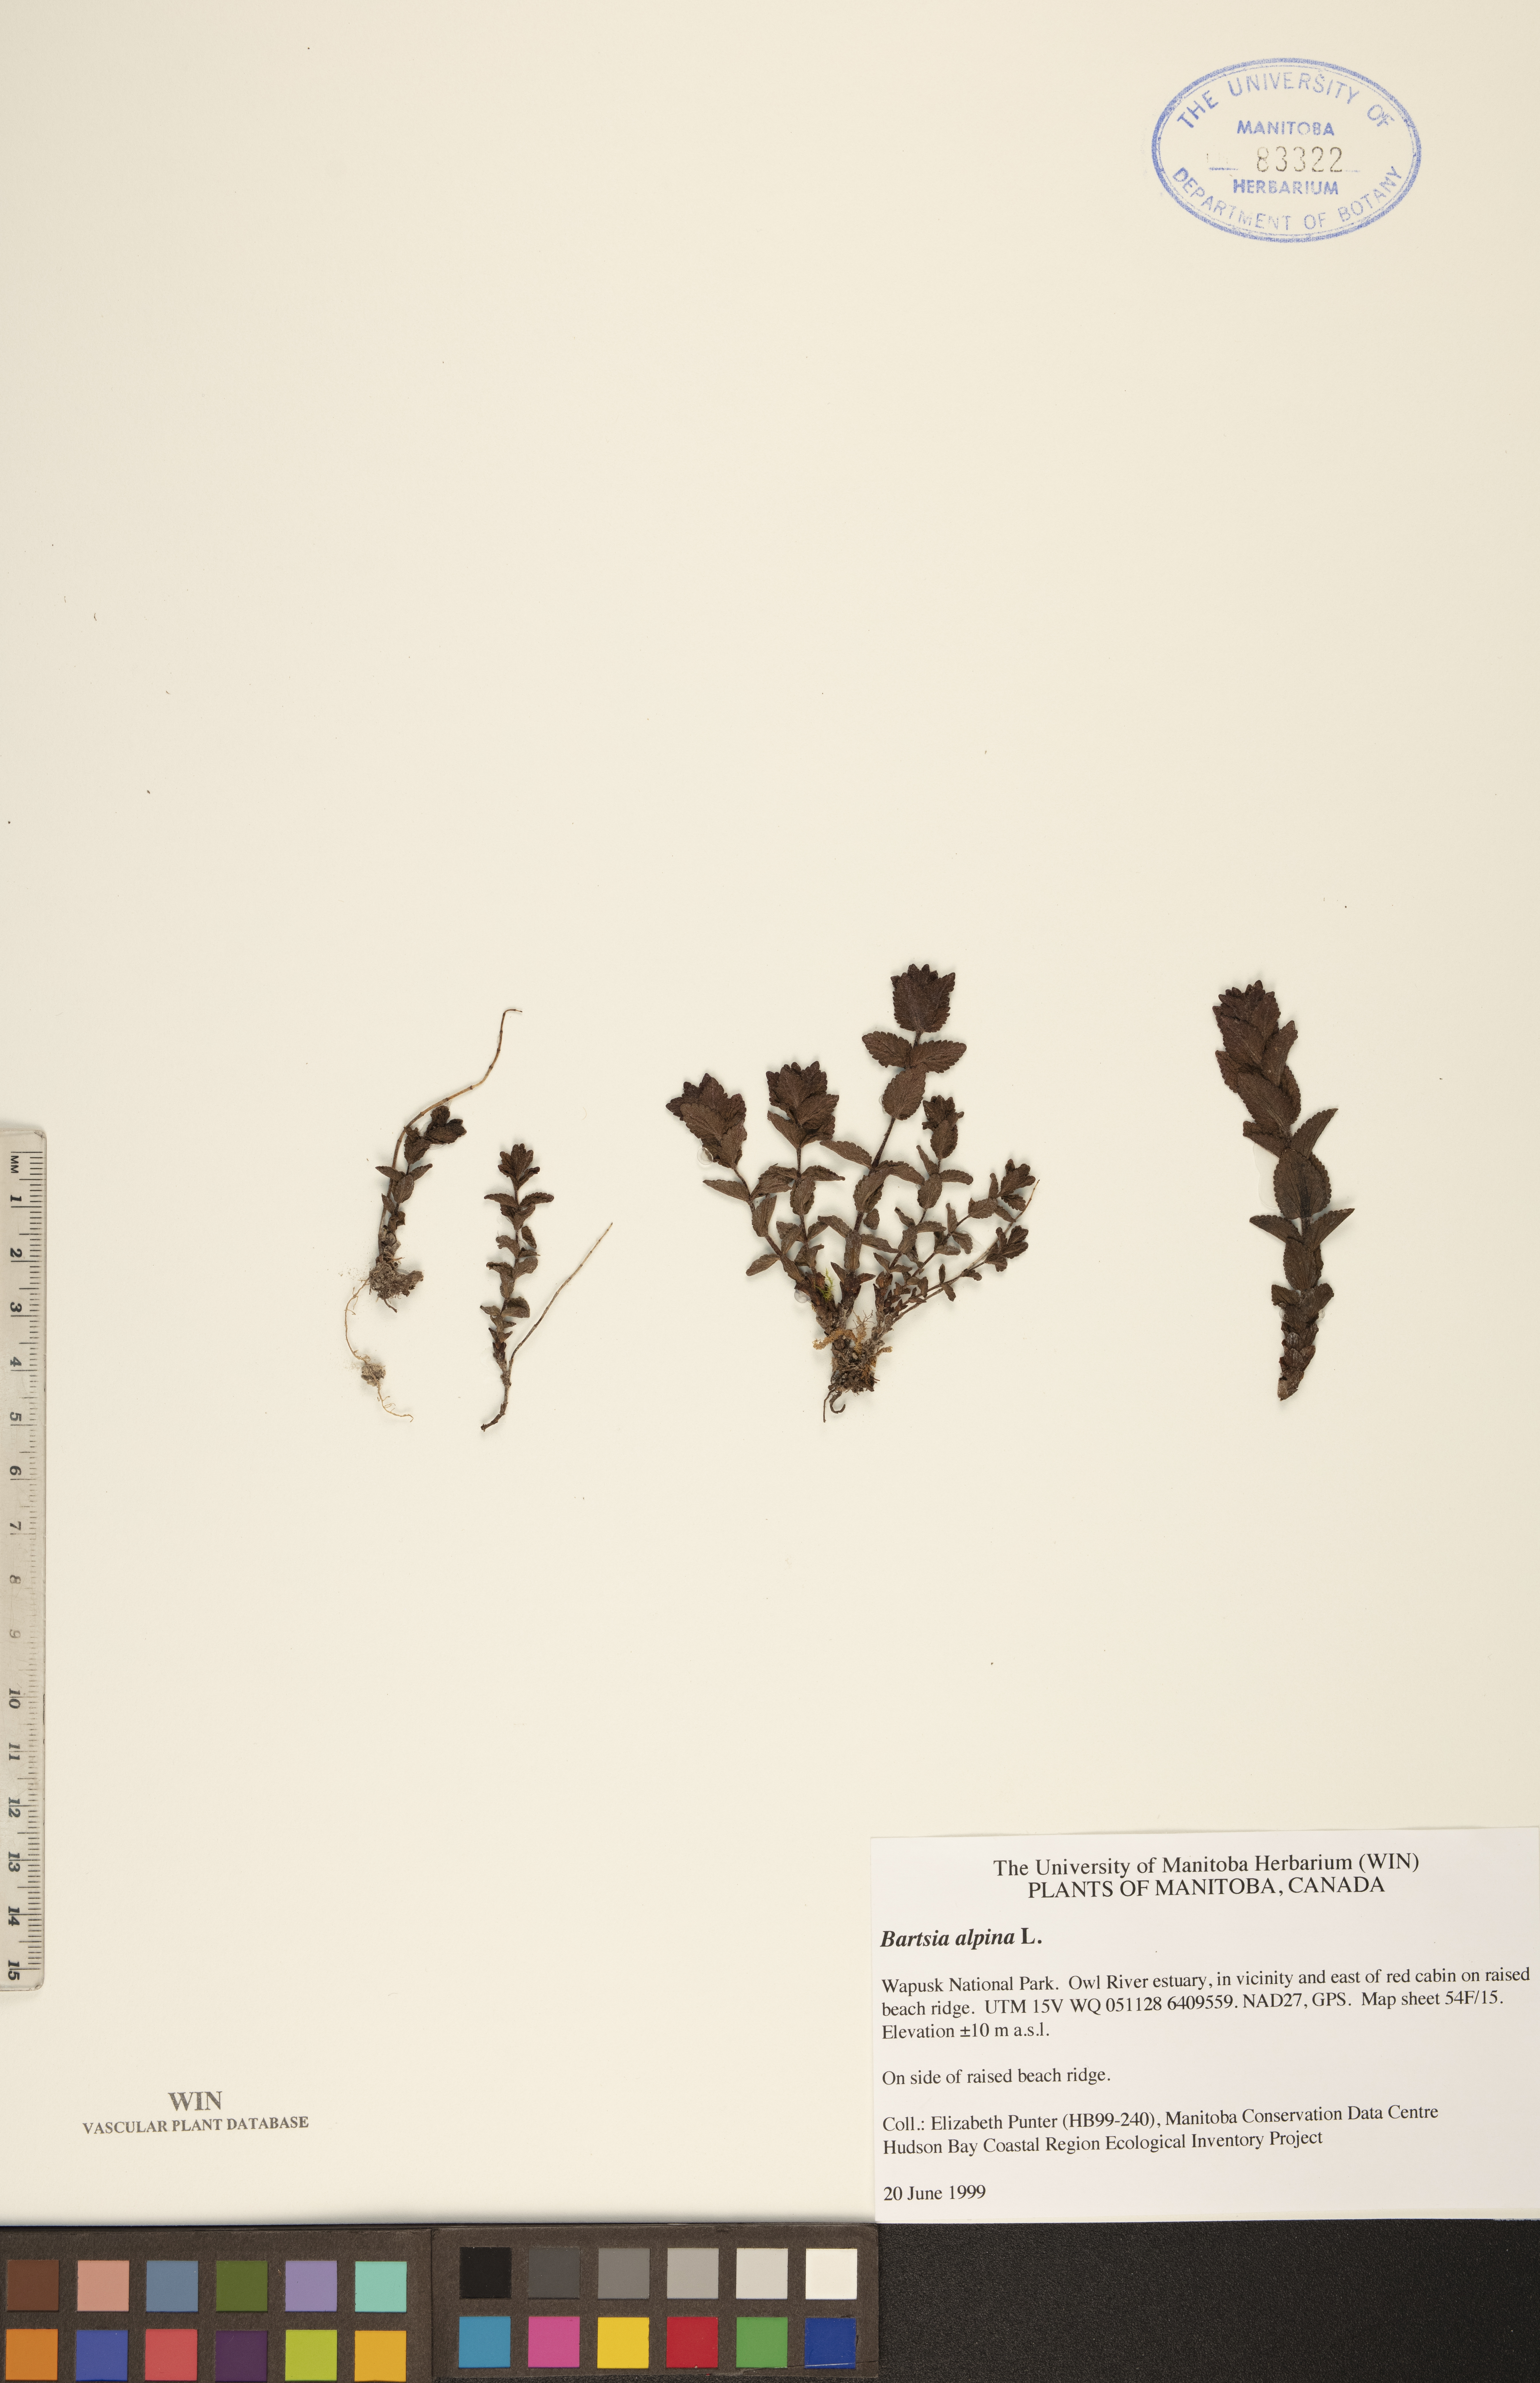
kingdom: Plantae
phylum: Tracheophyta
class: Magnoliopsida
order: Lamiales
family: Orobanchaceae
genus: Bartsia
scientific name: Bartsia alpina
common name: Alpine bartsia
